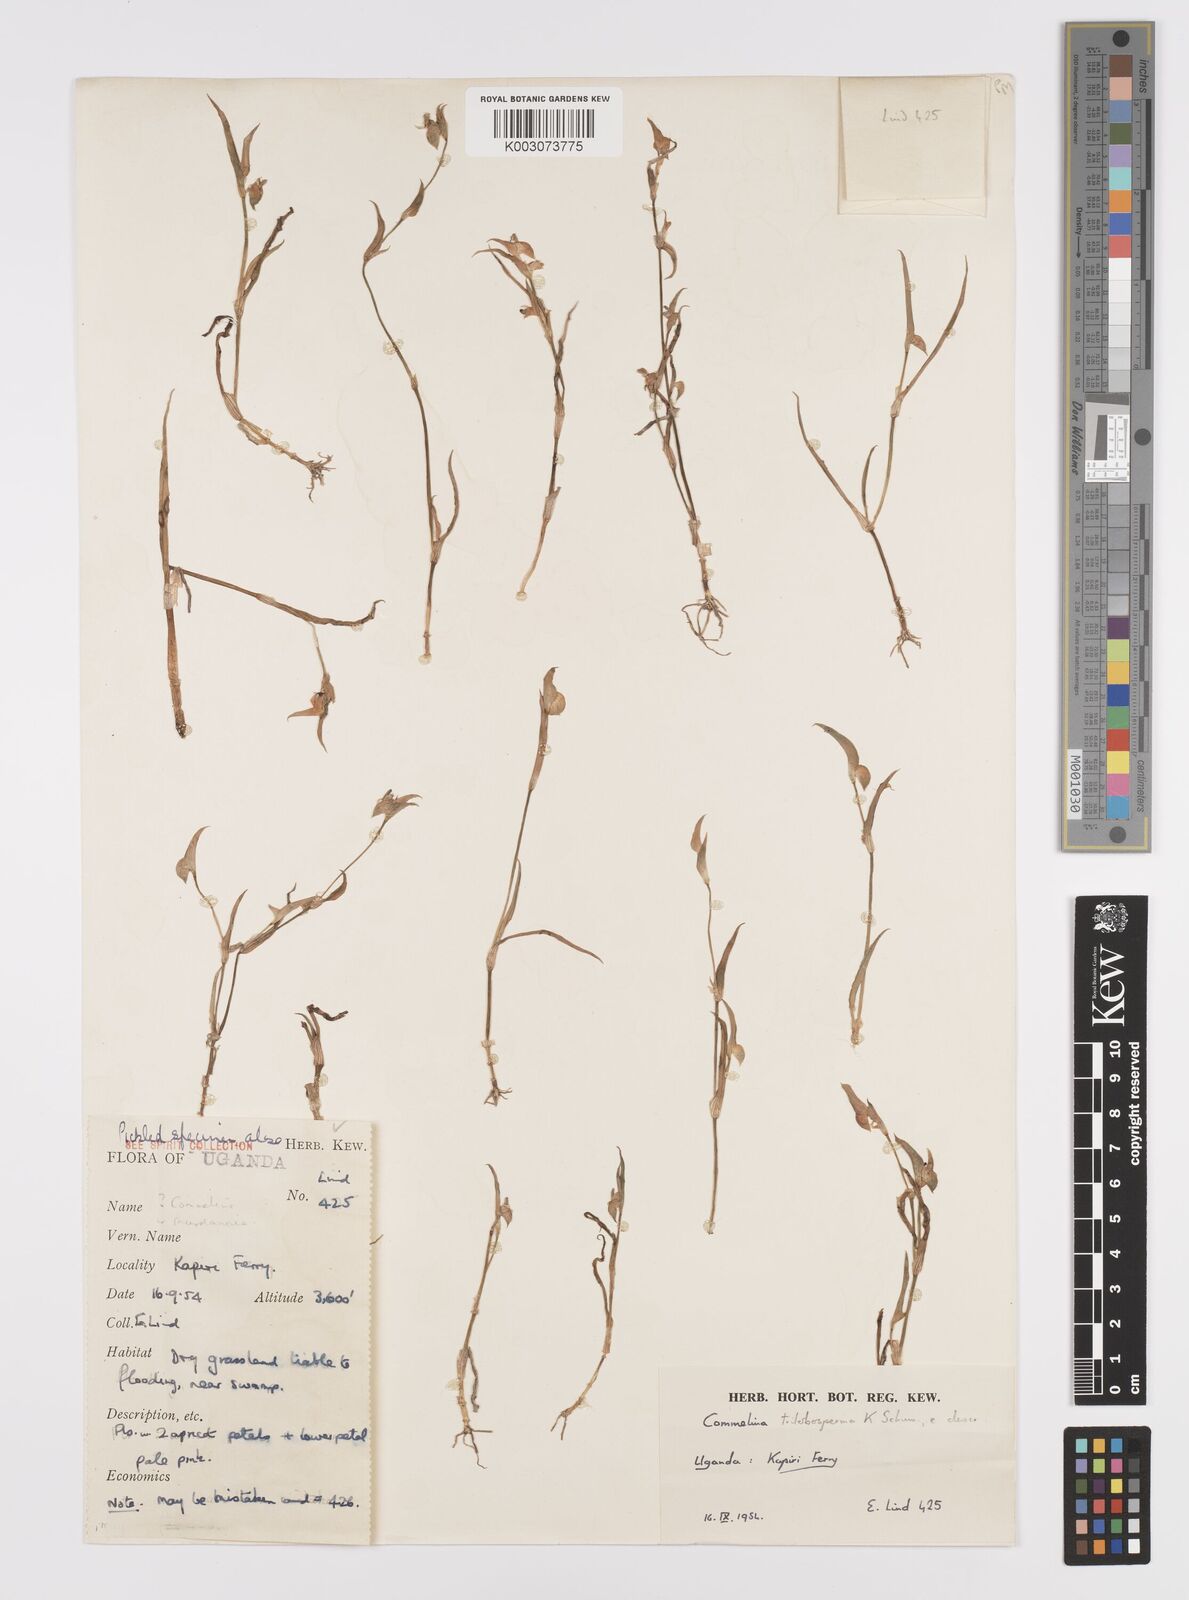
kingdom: Plantae
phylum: Tracheophyta
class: Liliopsida
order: Commelinales
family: Commelinaceae
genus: Commelina
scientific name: Commelina trilobosperma
